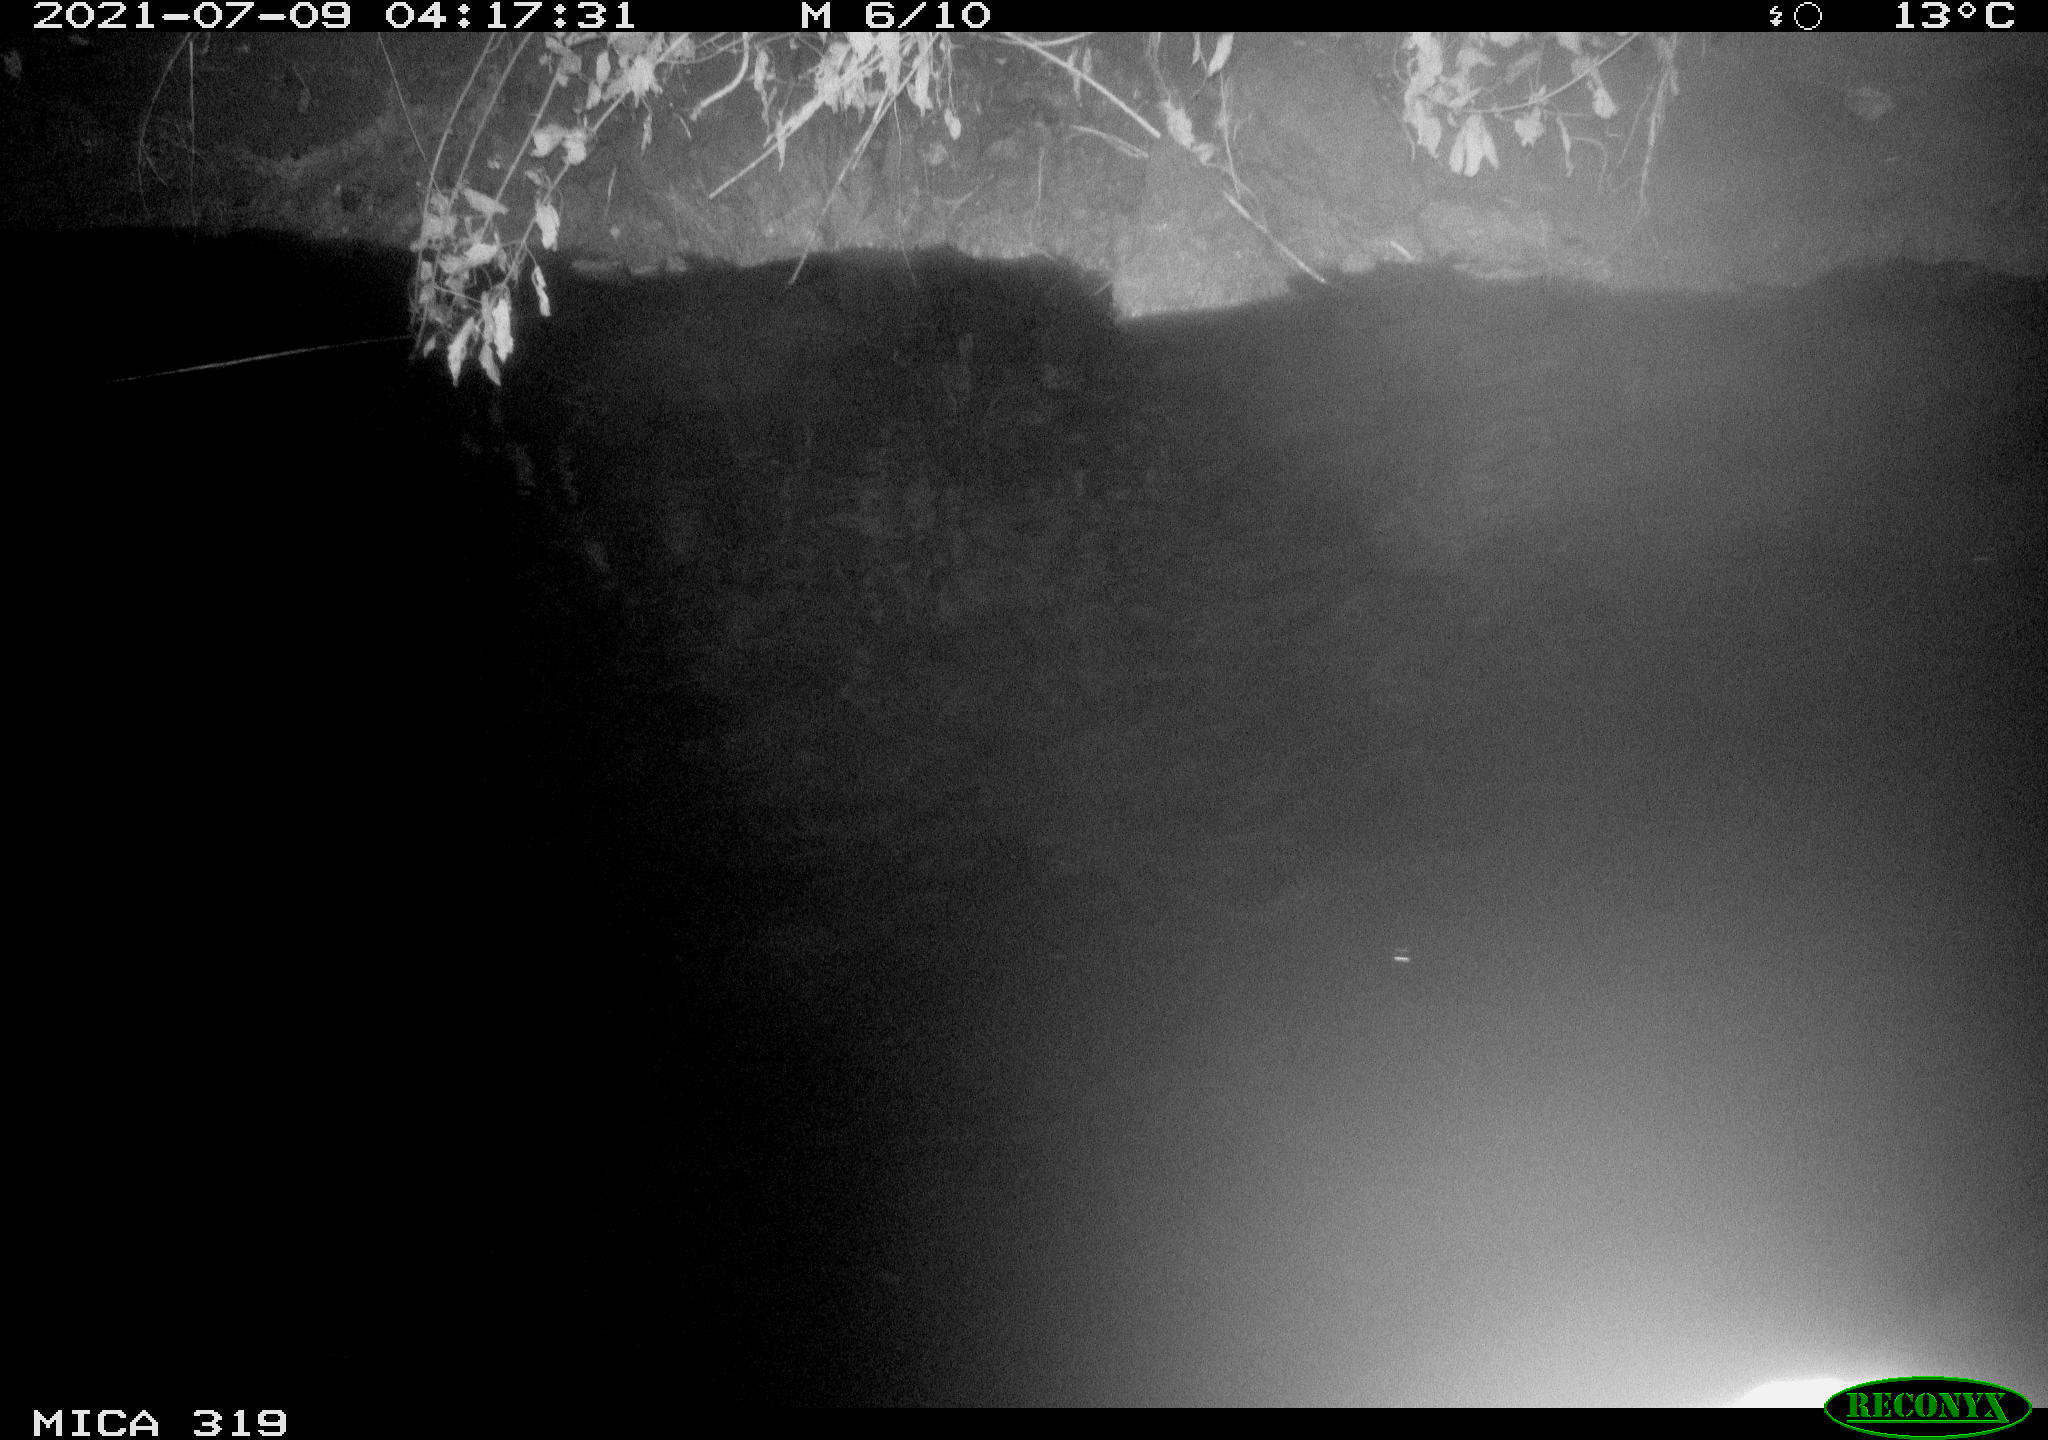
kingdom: Animalia
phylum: Chordata
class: Aves
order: Anseriformes
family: Anatidae
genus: Anas
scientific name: Anas platyrhynchos
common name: Mallard
